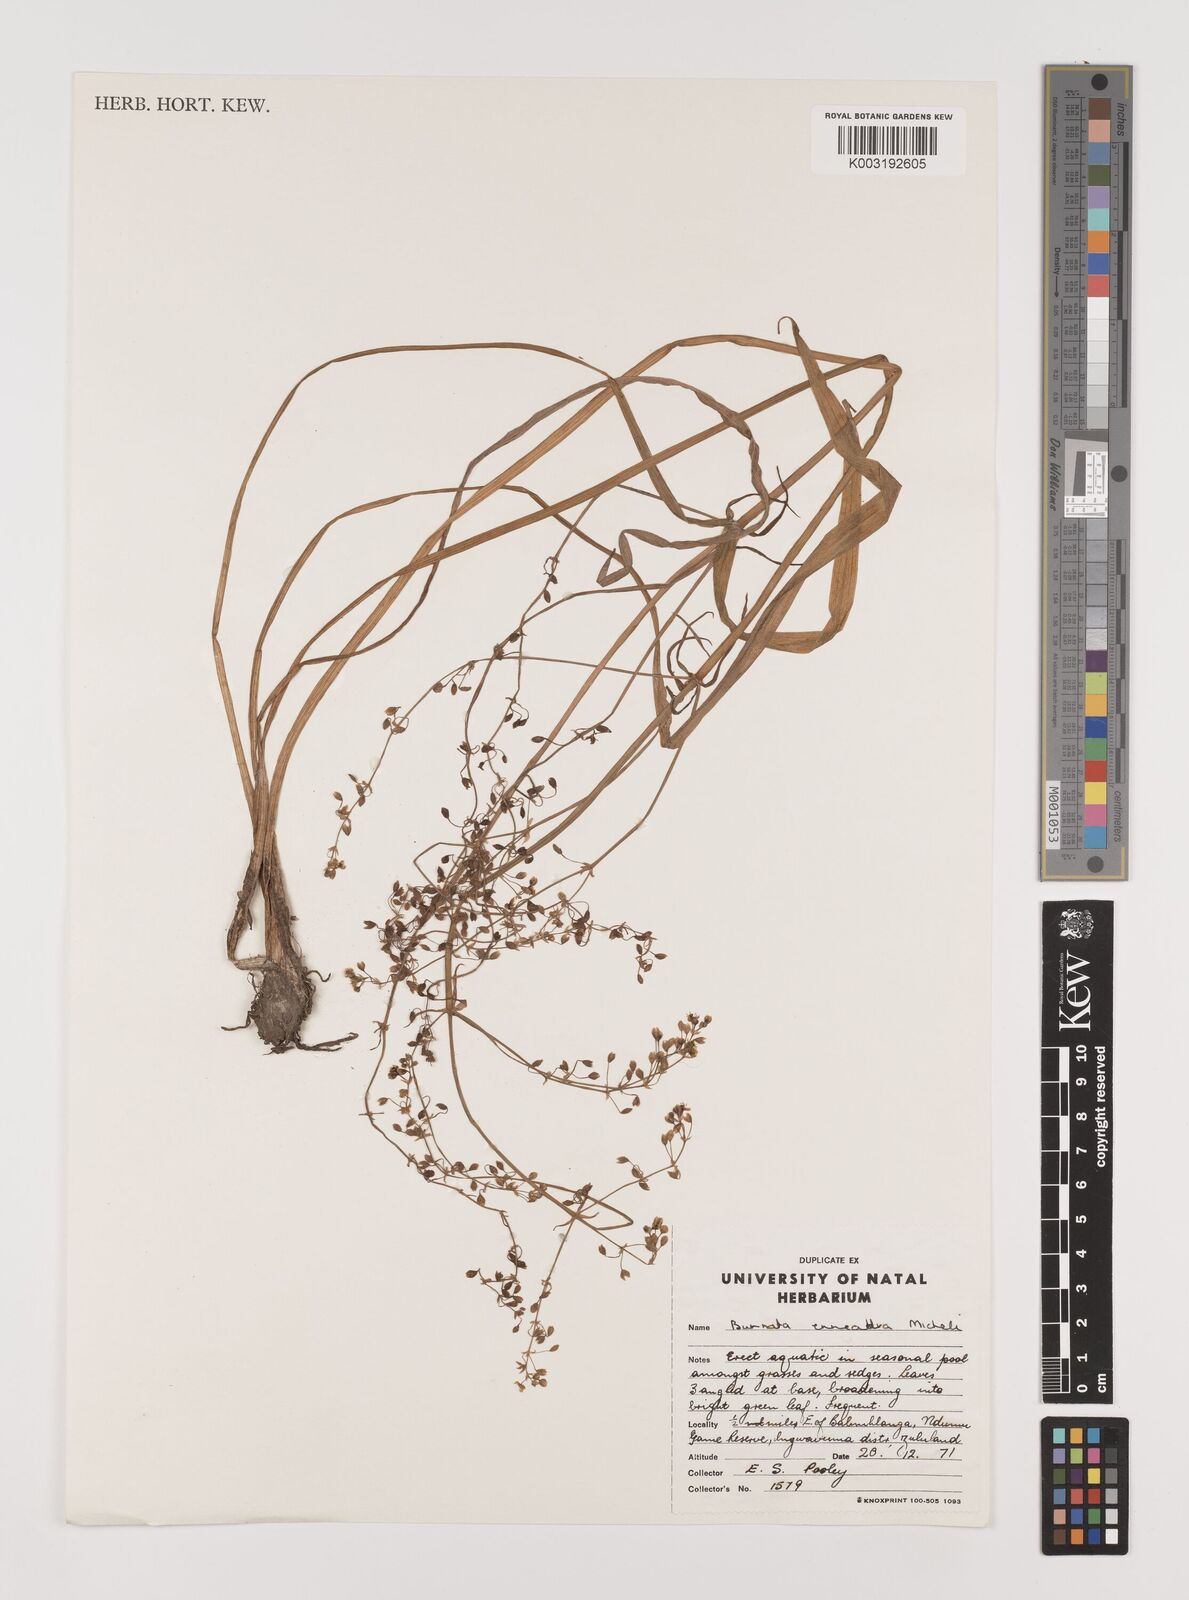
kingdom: Plantae
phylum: Tracheophyta
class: Liliopsida
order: Alismatales
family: Alismataceae
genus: Burnatia
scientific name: Burnatia enneandra
